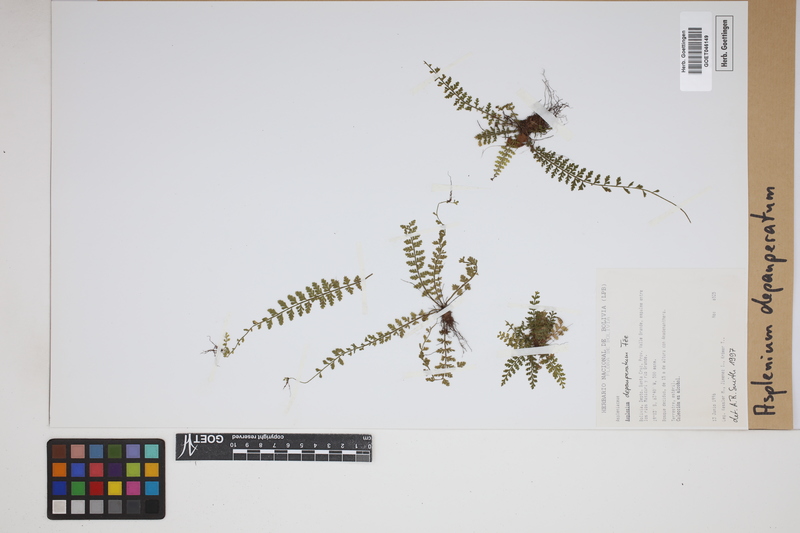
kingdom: Plantae
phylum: Tracheophyta
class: Polypodiopsida
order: Polypodiales
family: Aspleniaceae
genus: Asplenium
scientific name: Asplenium depauperatum
